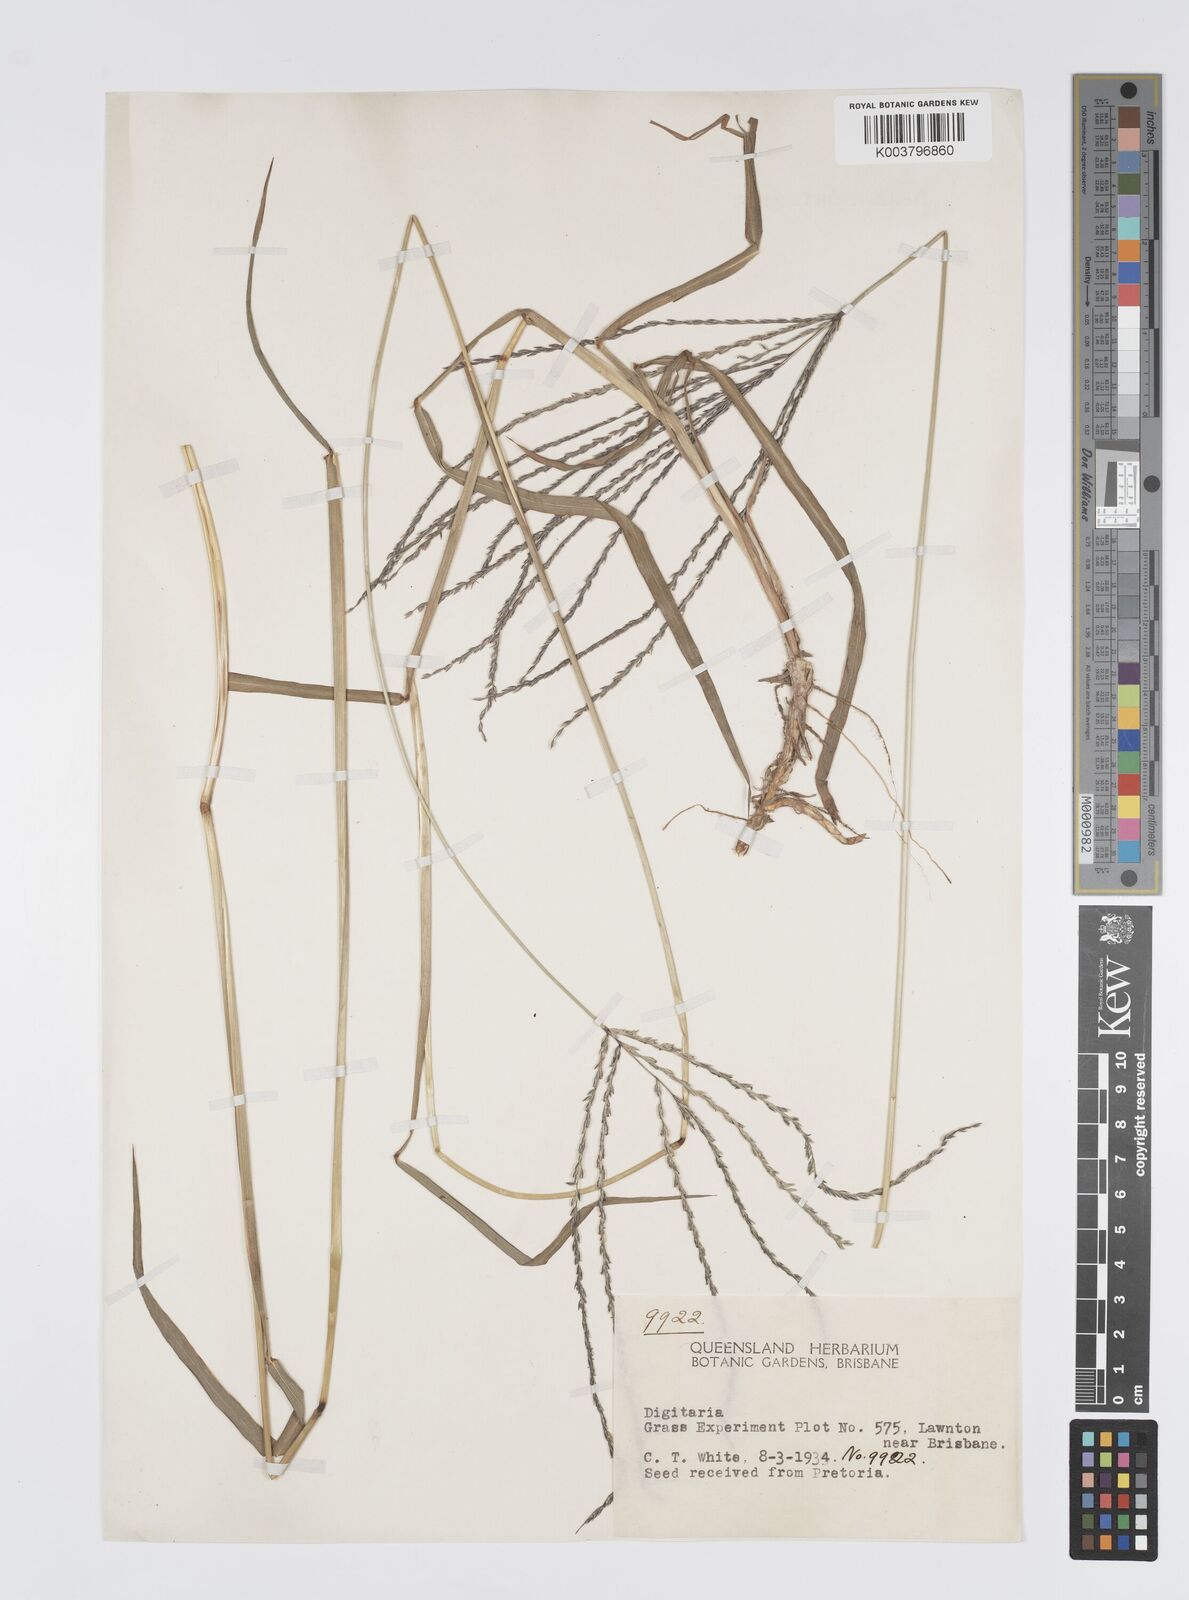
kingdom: Plantae
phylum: Tracheophyta
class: Liliopsida
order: Poales
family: Poaceae
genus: Digitaria
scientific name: Digitaria milanjiana
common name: Madagascar crabgrass
